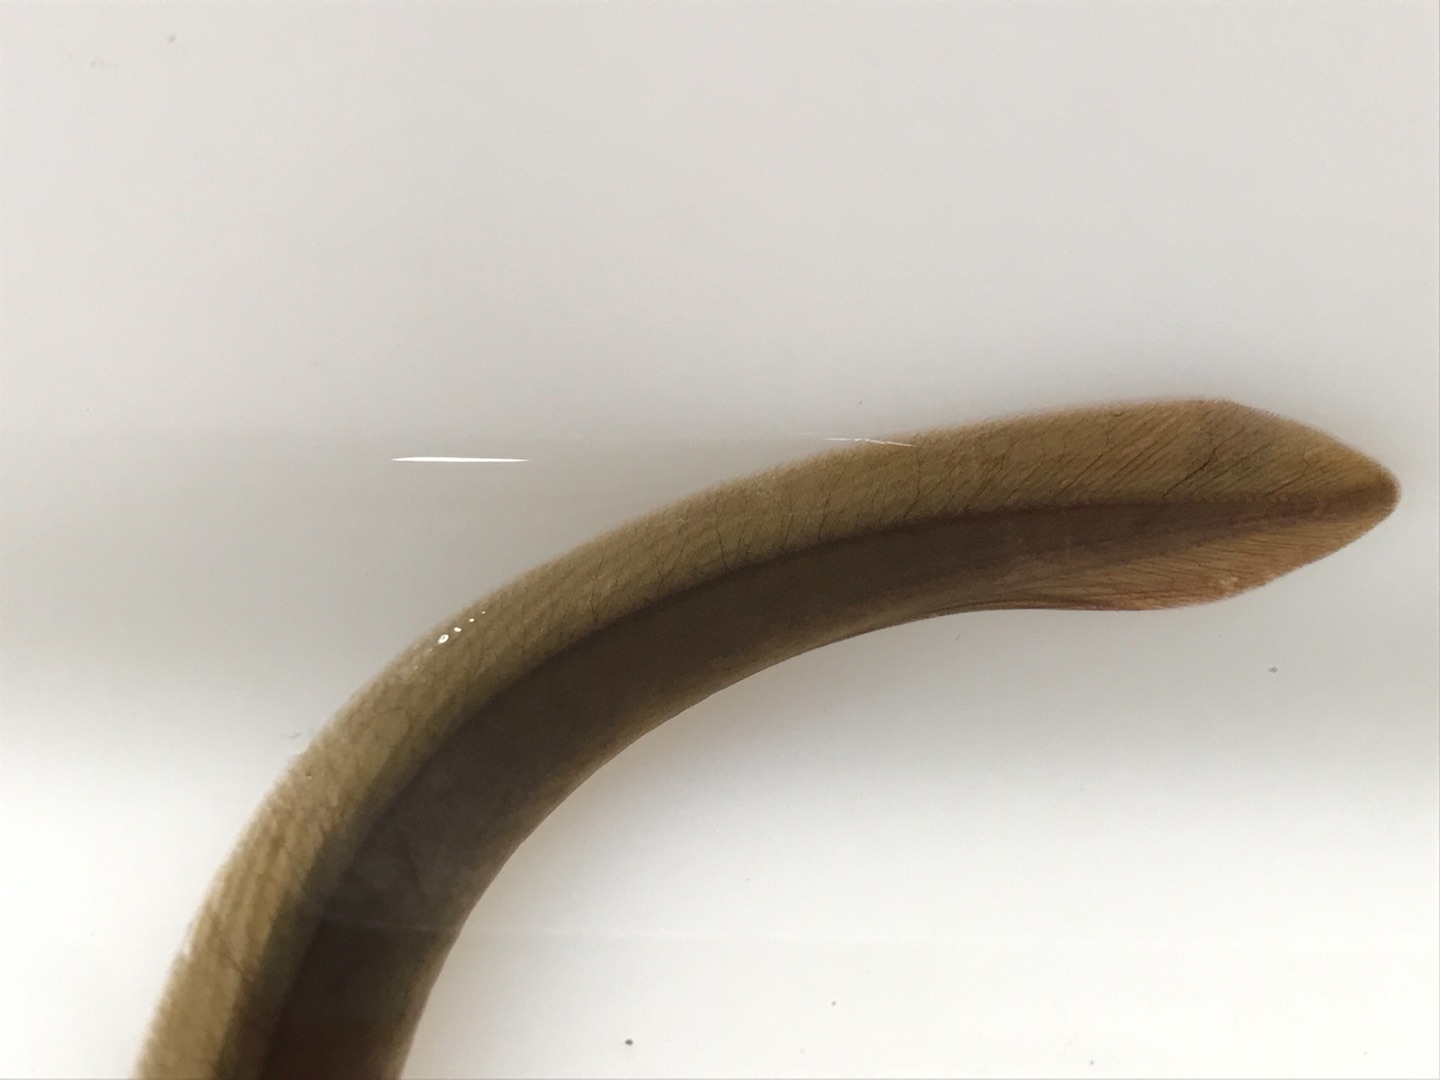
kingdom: Animalia
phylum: Chordata
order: Anguilliformes
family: Anguillidae
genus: Anguilla
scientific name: Anguilla anguilla
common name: Europæisk ål
